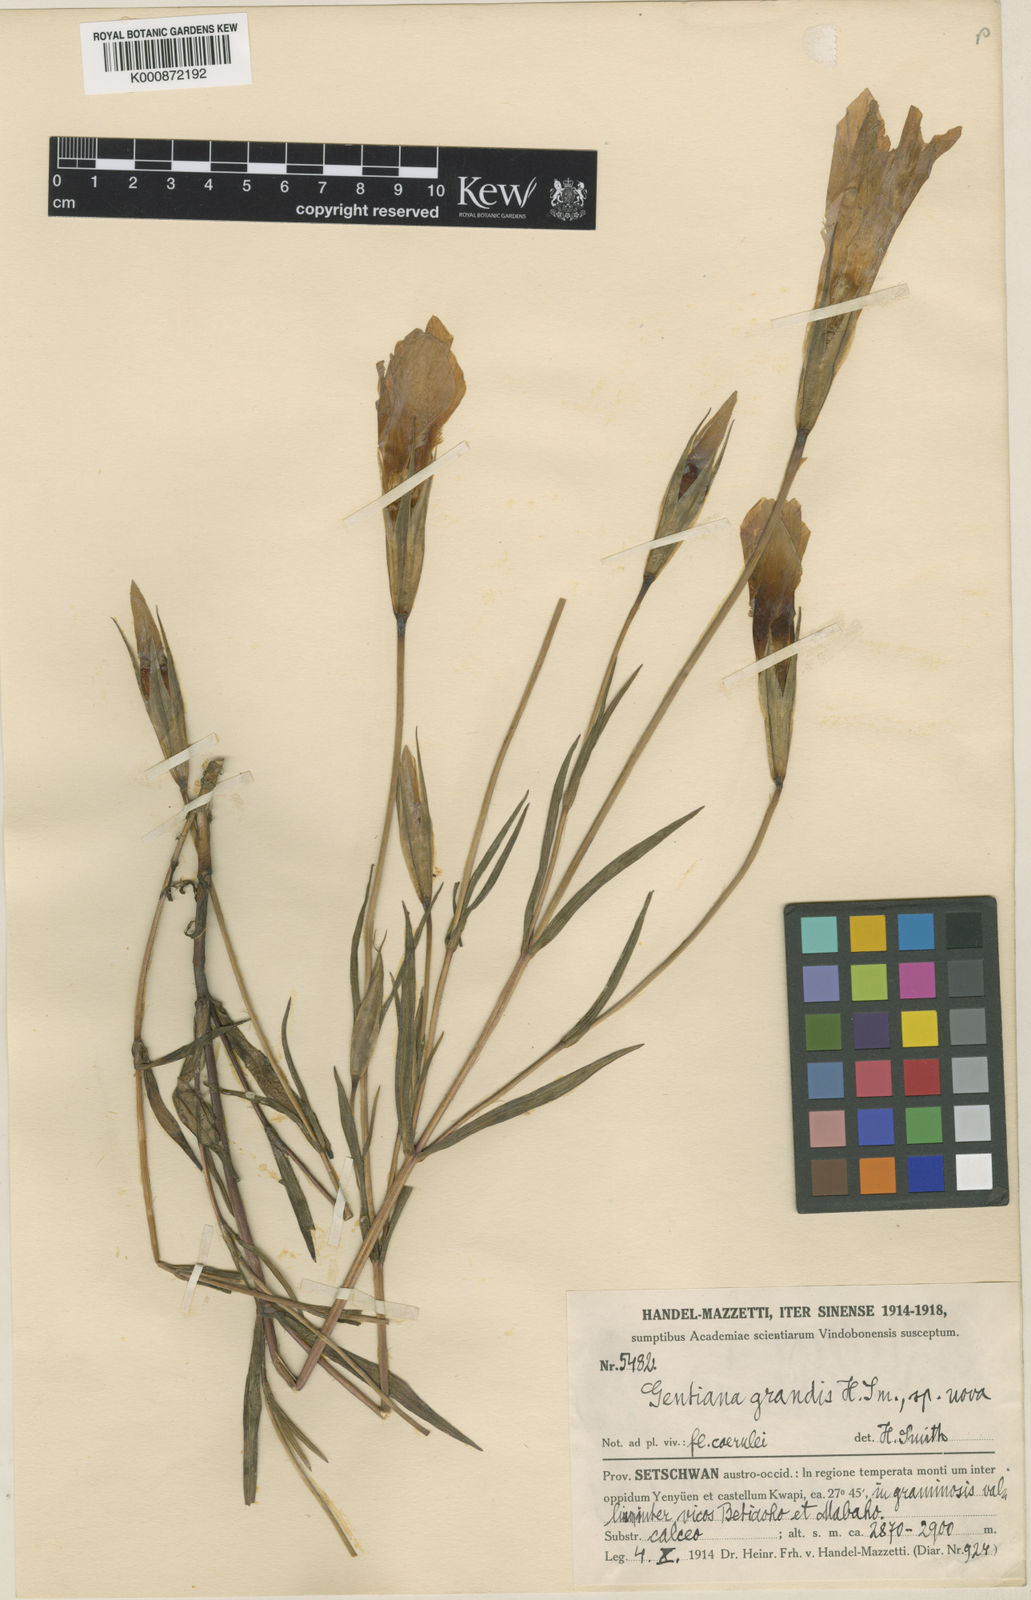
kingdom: Plantae
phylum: Tracheophyta
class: Magnoliopsida
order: Gentianales
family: Gentianaceae
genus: Gentianopsis
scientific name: Gentianopsis grandis
